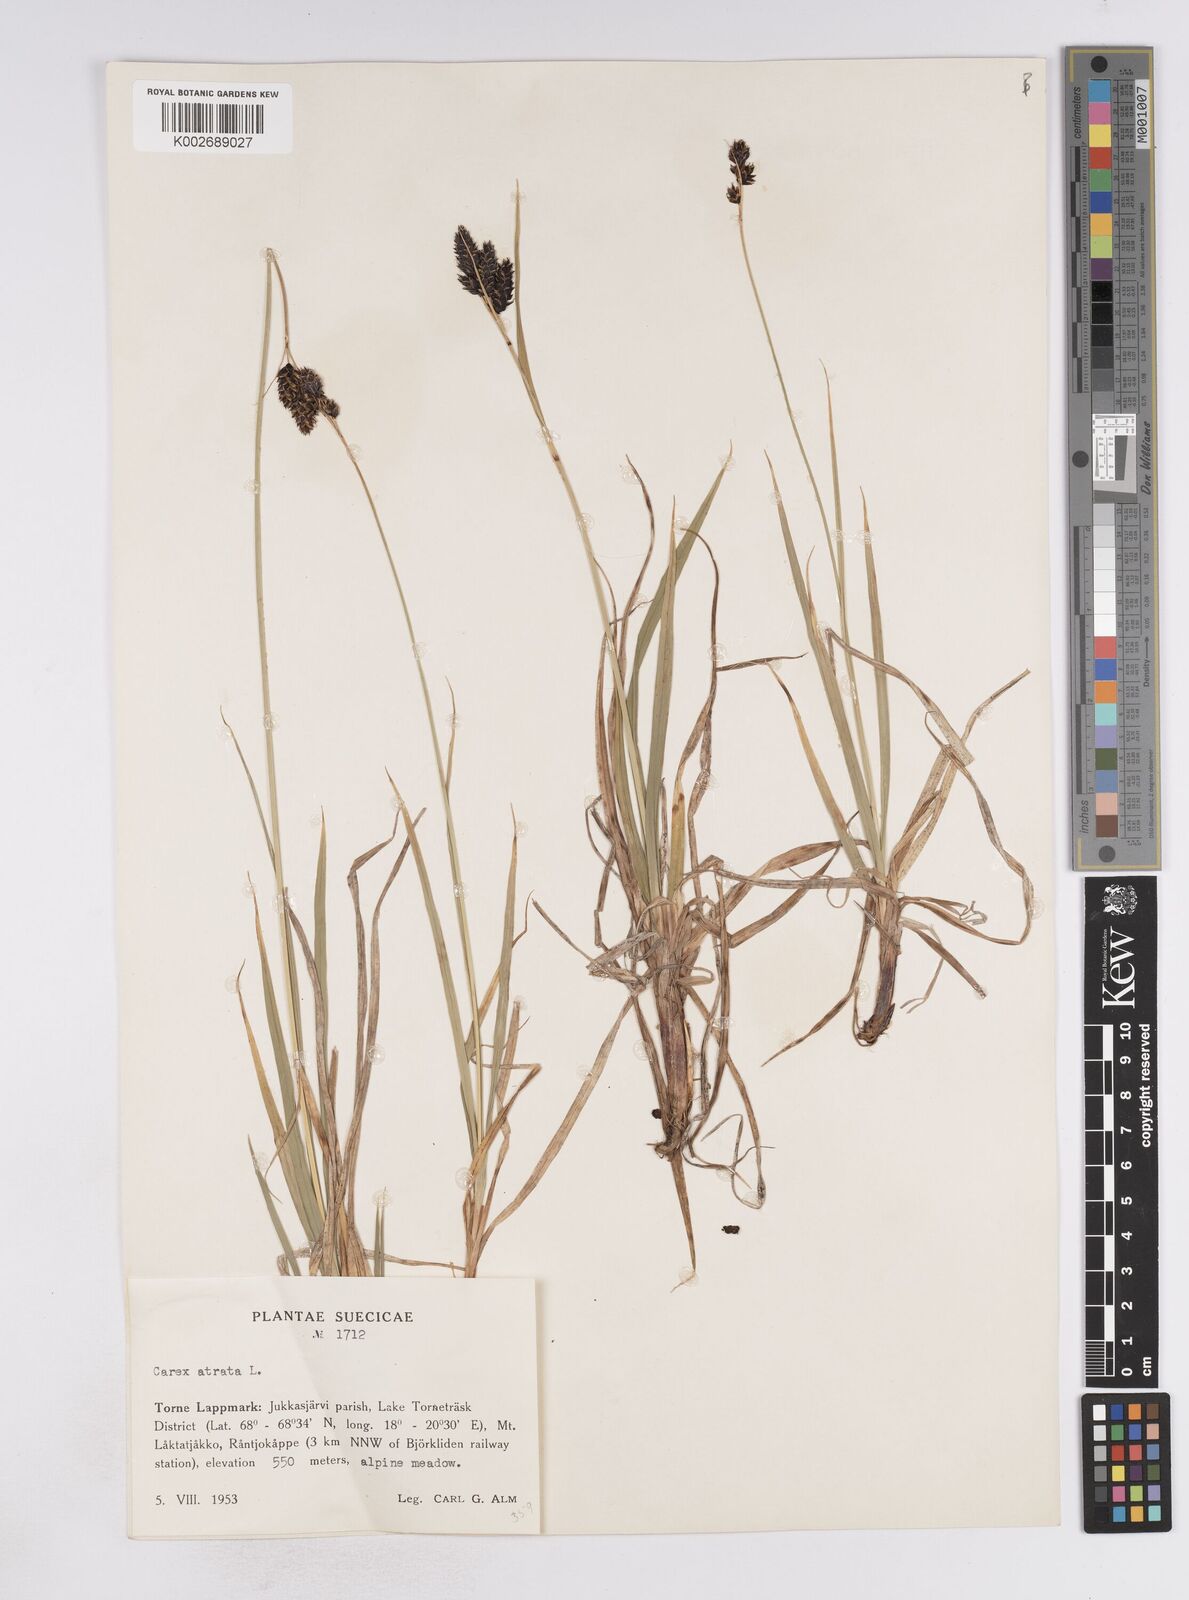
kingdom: Plantae
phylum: Tracheophyta
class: Liliopsida
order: Poales
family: Cyperaceae
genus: Carex
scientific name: Carex atrata
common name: Black alpine sedge
